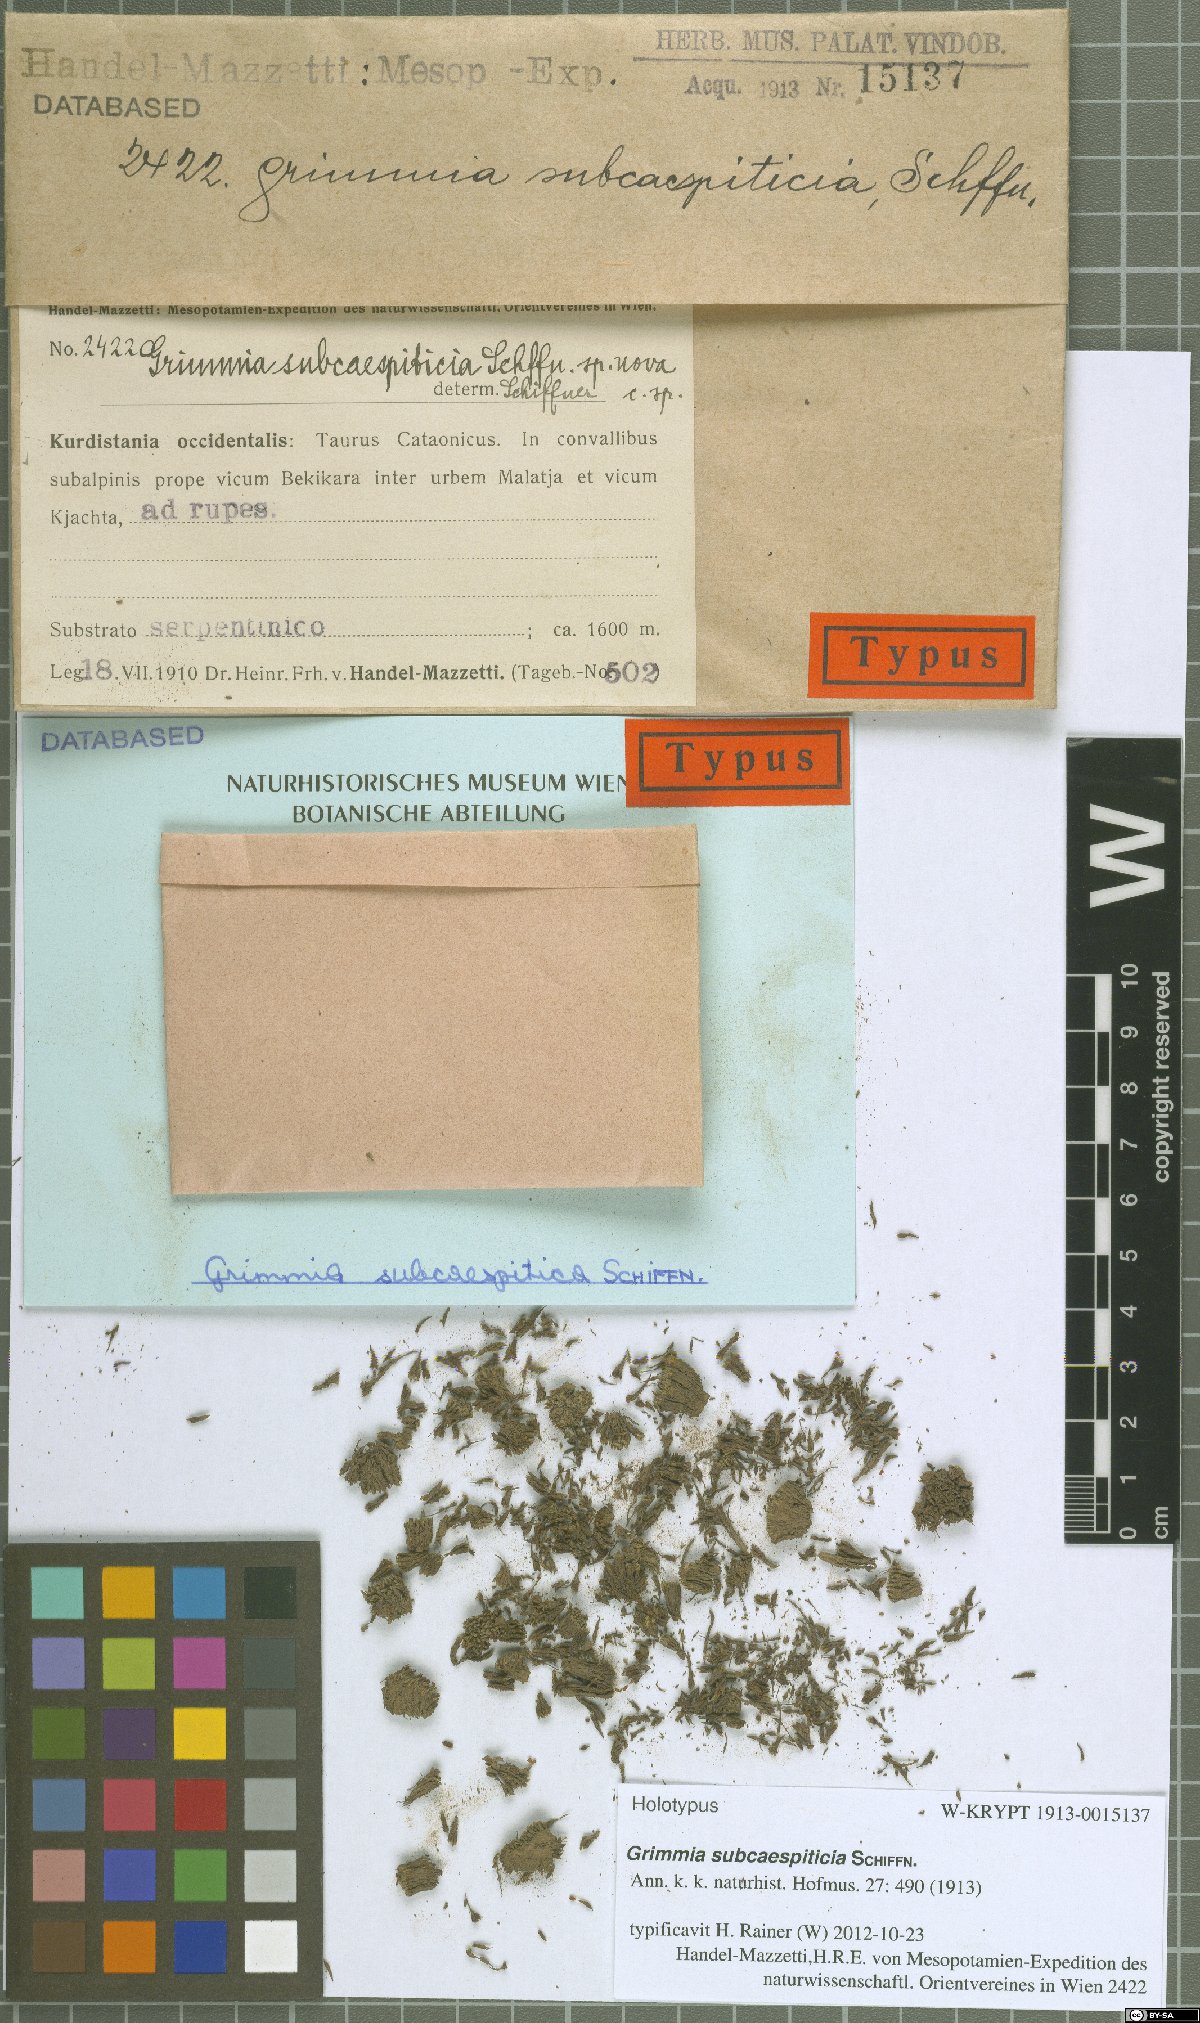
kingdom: Plantae
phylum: Bryophyta
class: Bryopsida
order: Grimmiales
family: Grimmiaceae
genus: Grimmia
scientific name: Grimmia caespiticia
